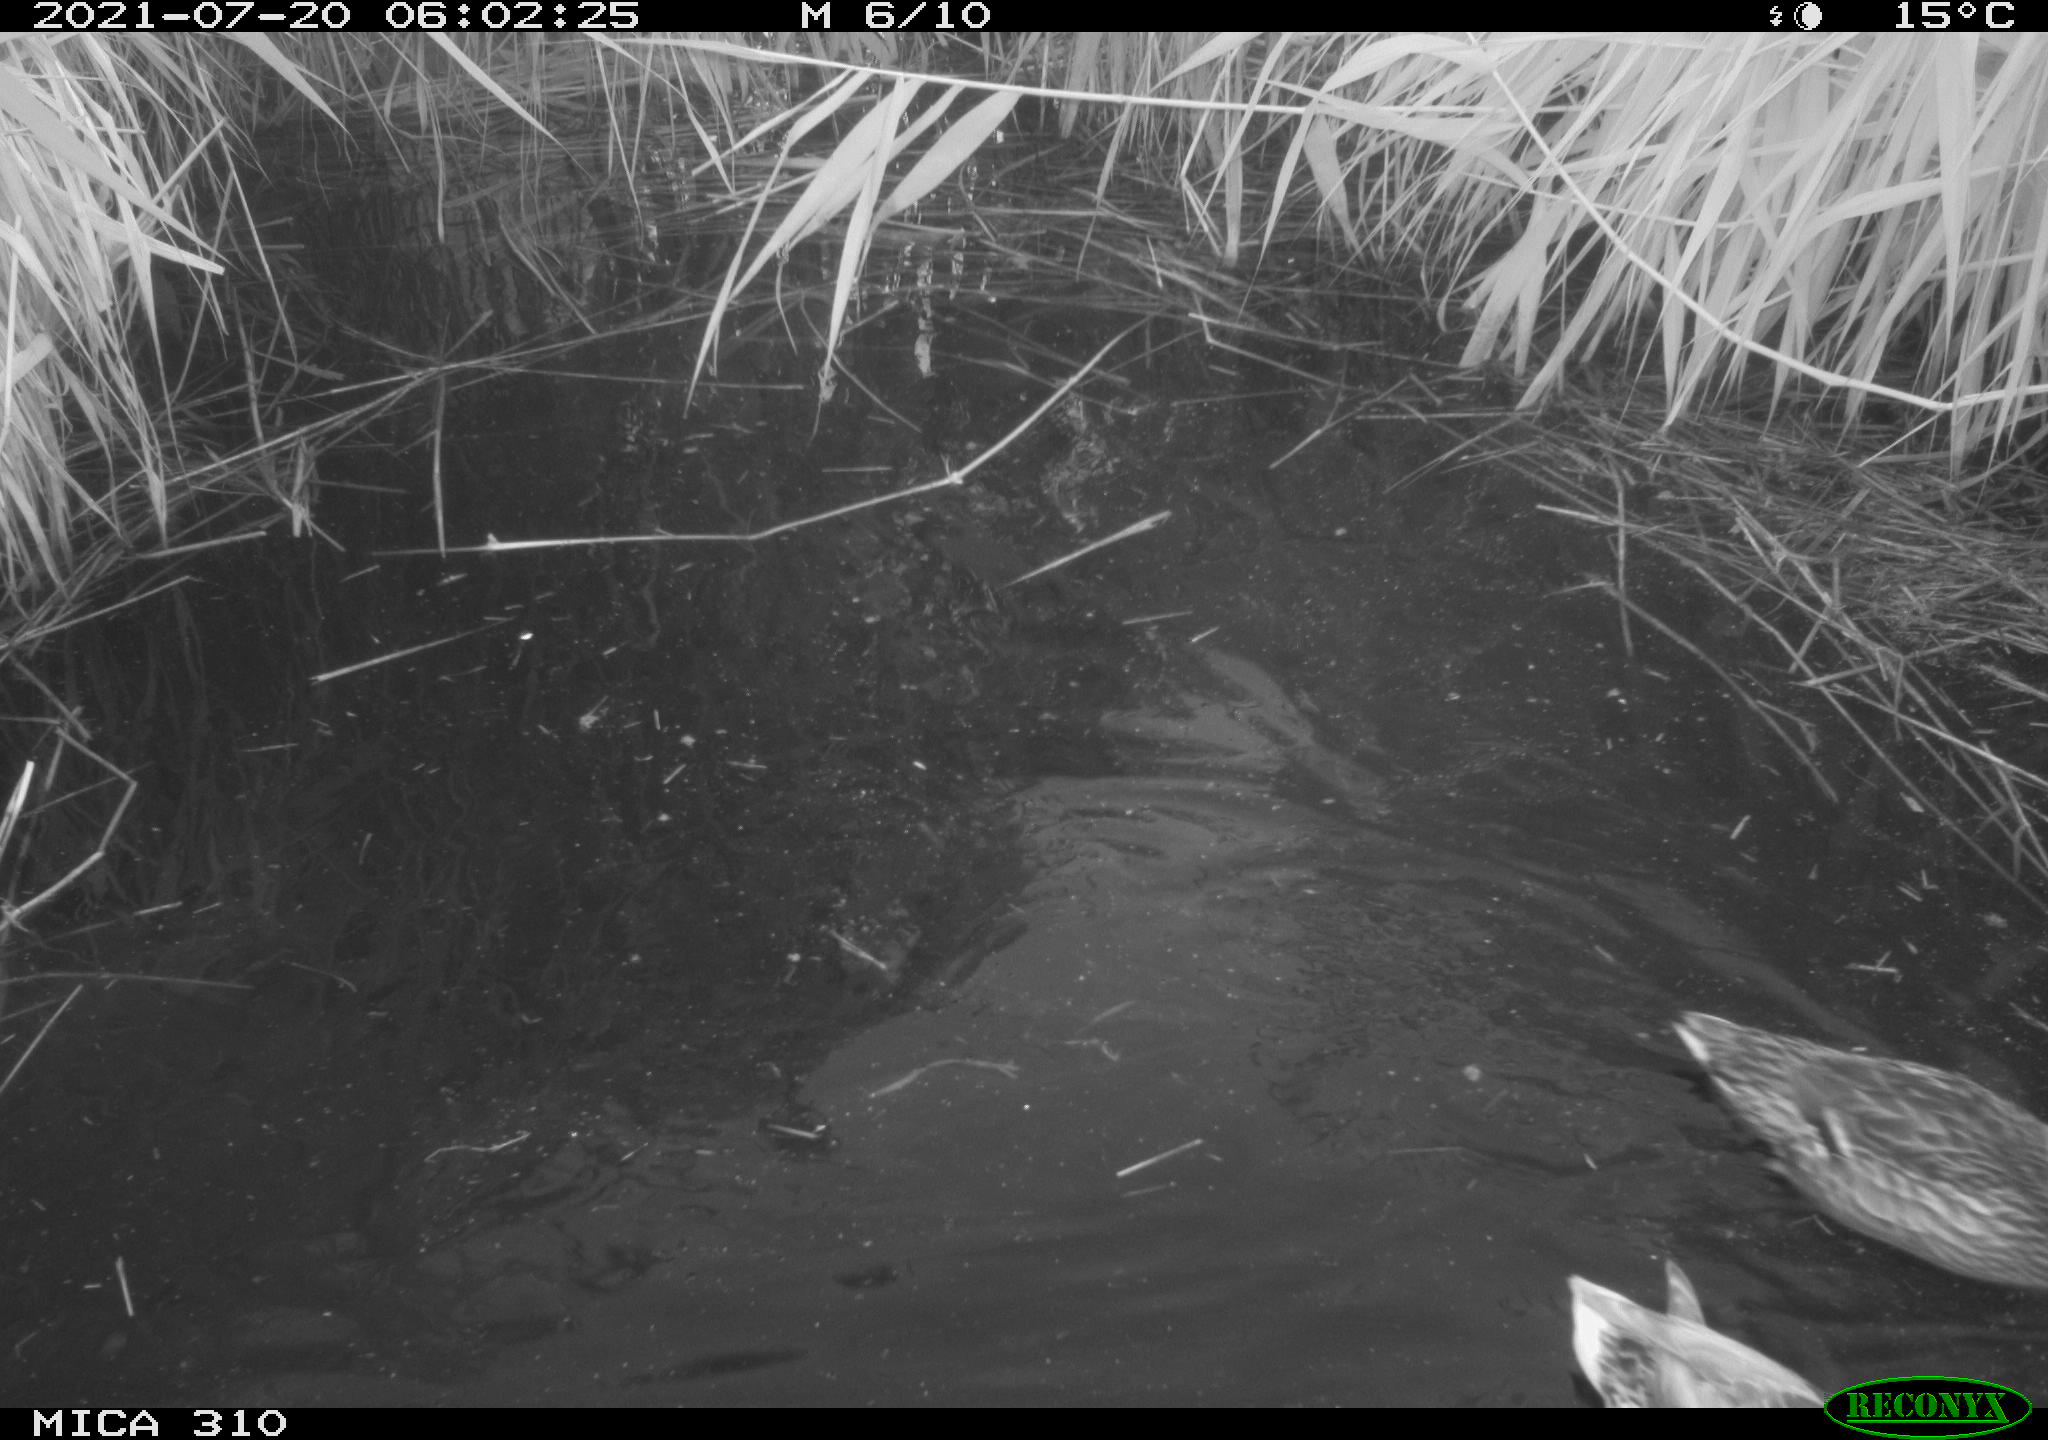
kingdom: Animalia
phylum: Chordata
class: Aves
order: Anseriformes
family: Anatidae
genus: Mareca
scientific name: Mareca strepera
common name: Gadwall
